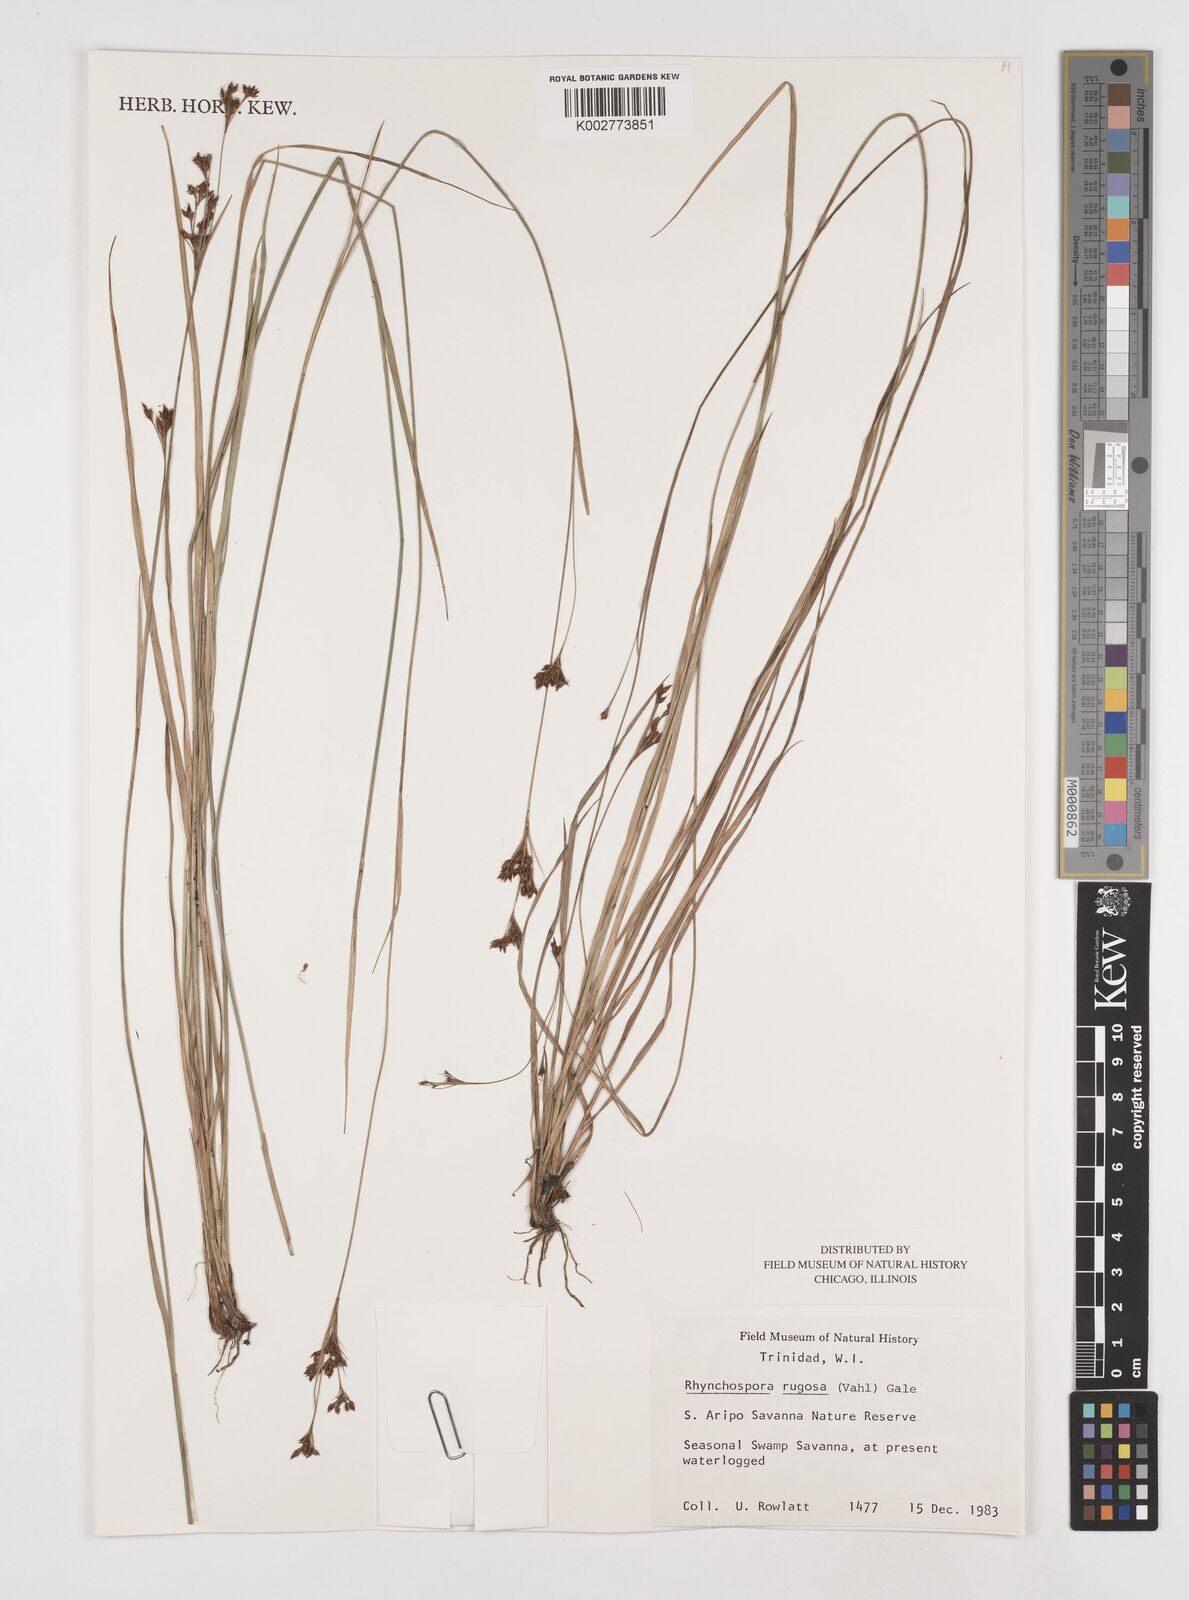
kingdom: Plantae
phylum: Tracheophyta
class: Liliopsida
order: Poales
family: Cyperaceae
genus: Rhynchospora
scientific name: Rhynchospora rugosa
